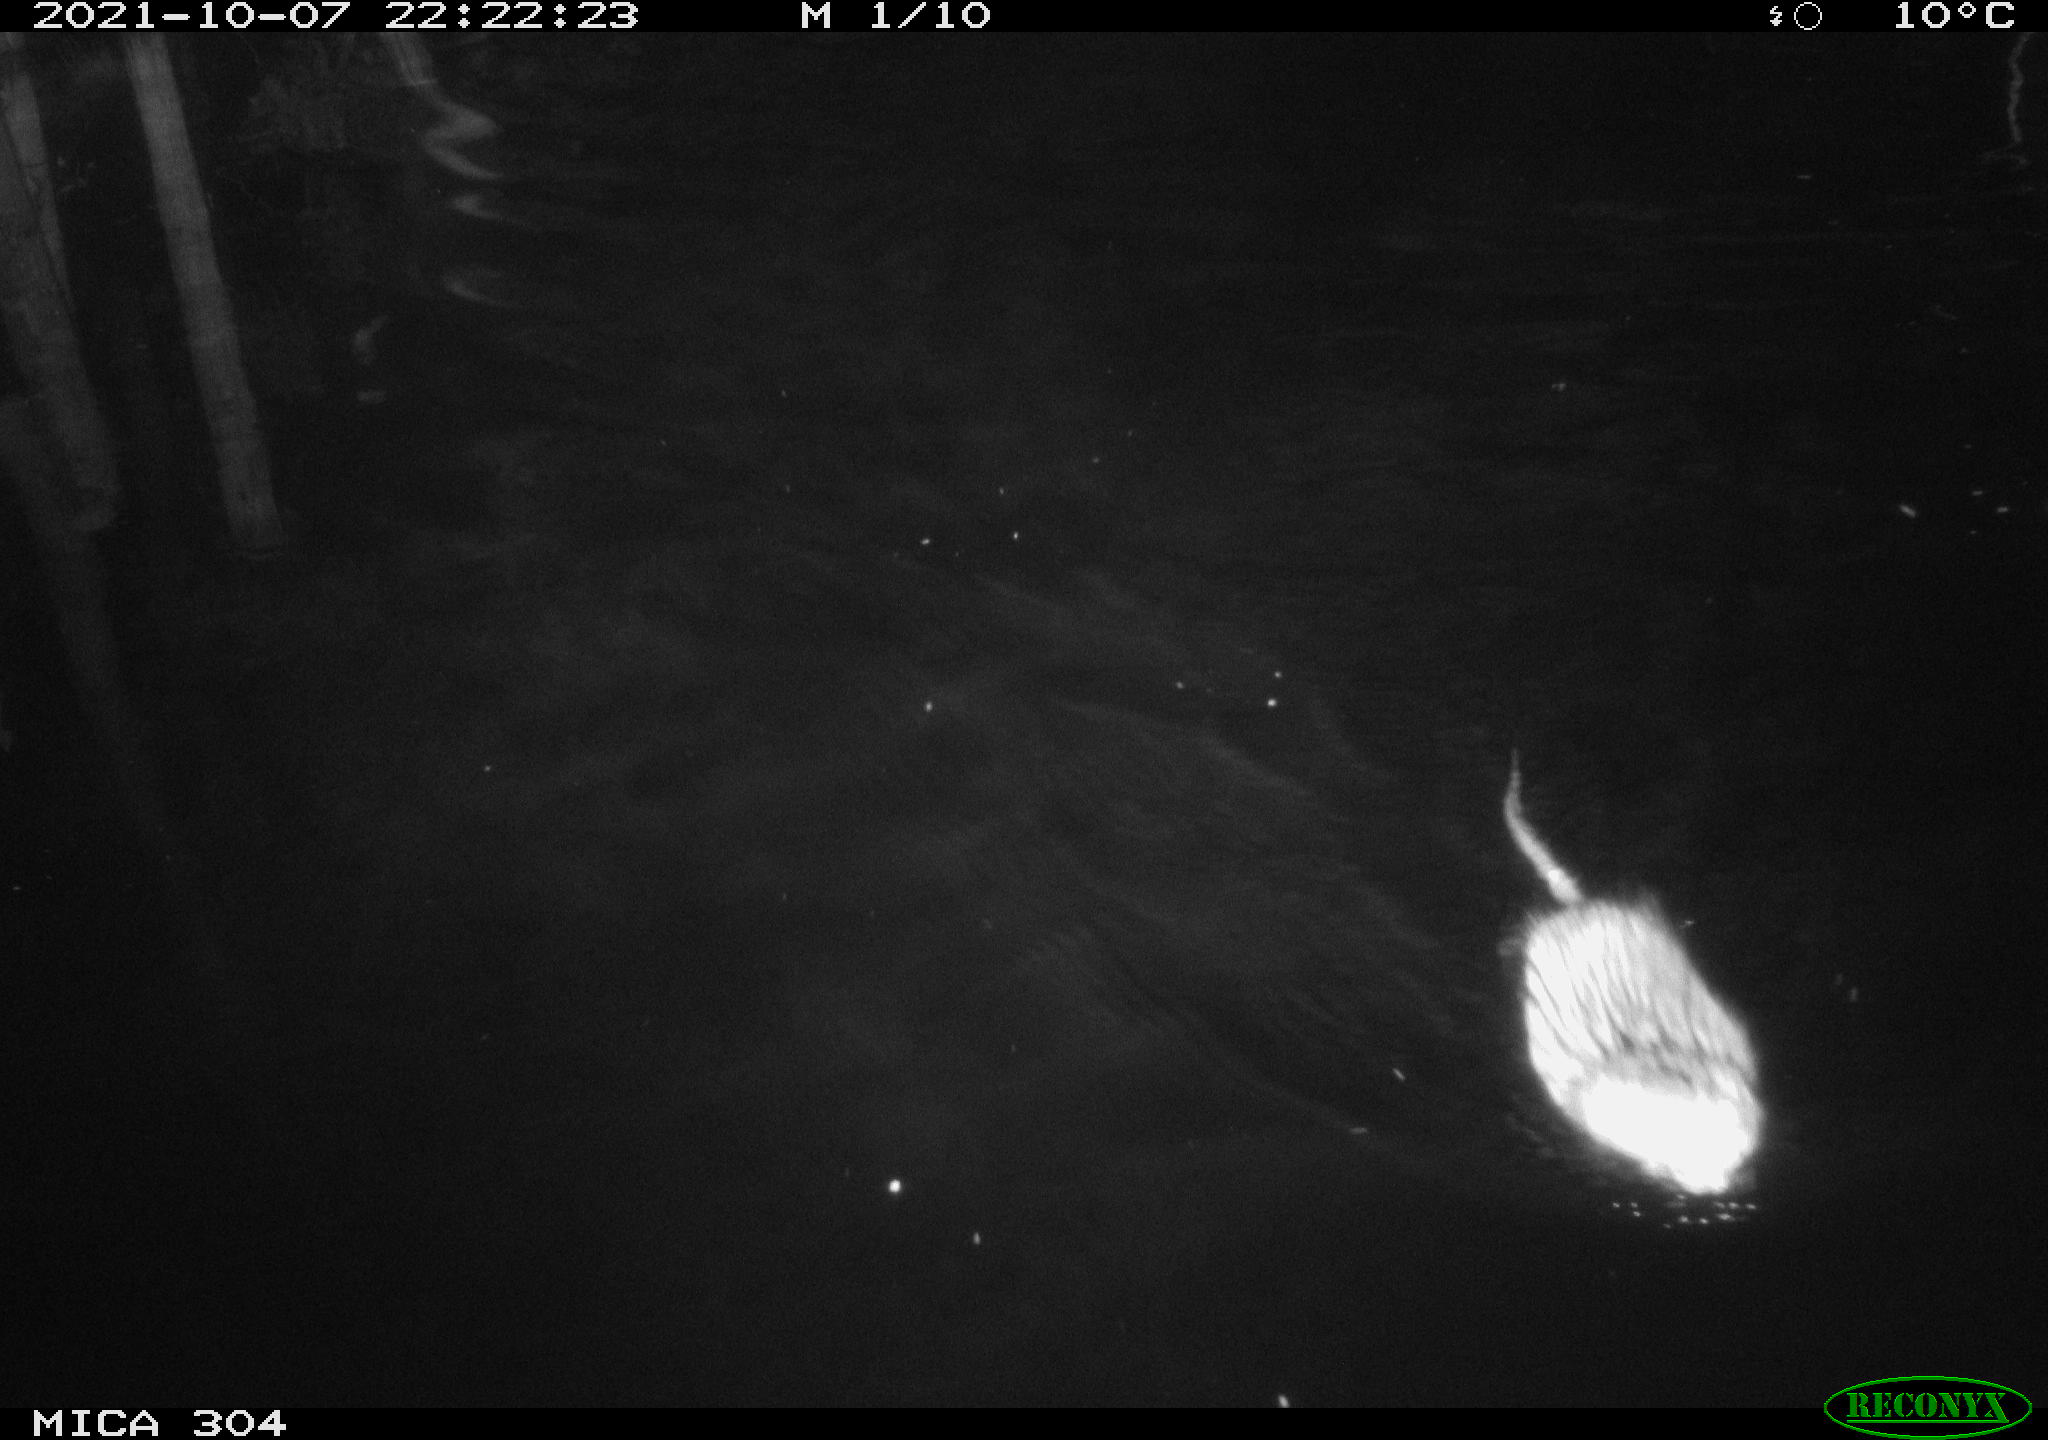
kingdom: Animalia
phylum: Chordata
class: Mammalia
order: Rodentia
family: Cricetidae
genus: Ondatra
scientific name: Ondatra zibethicus
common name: Muskrat
